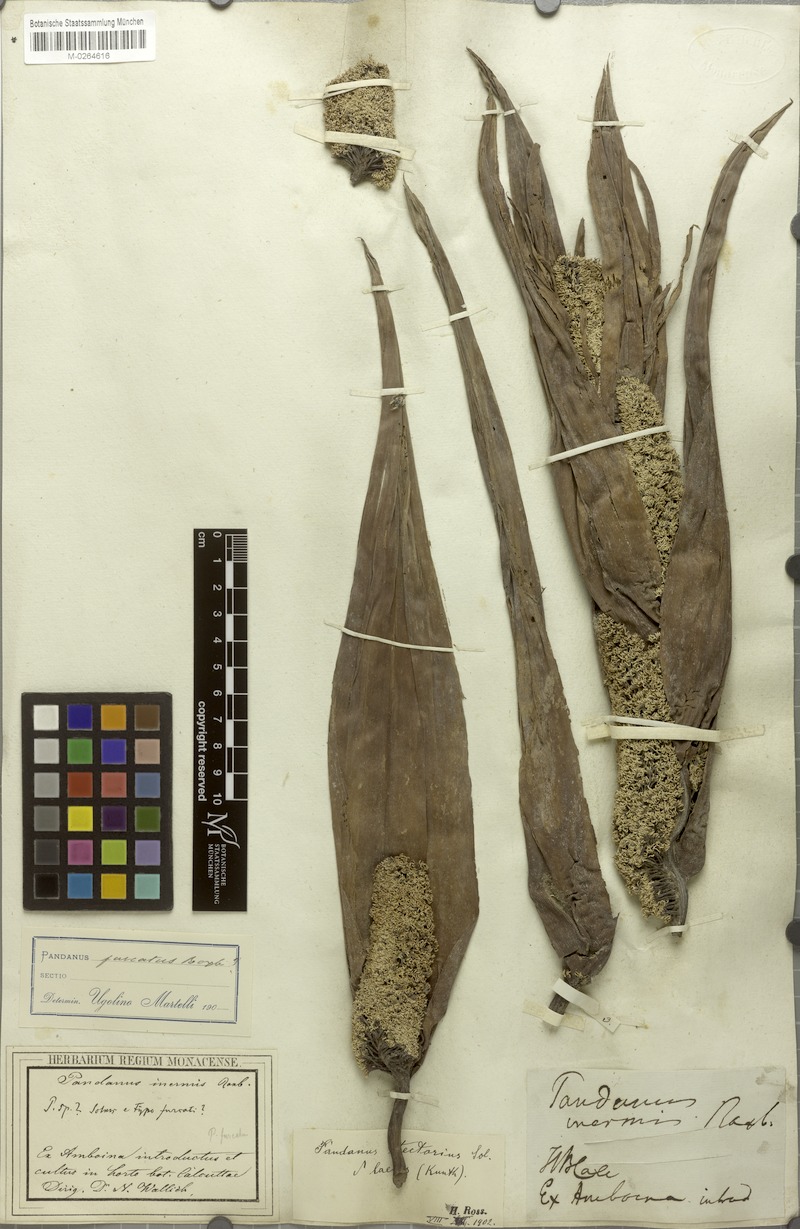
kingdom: Plantae
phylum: Tracheophyta
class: Liliopsida
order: Pandanales
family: Pandanaceae
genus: Pandanus
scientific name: Pandanus tectorius
